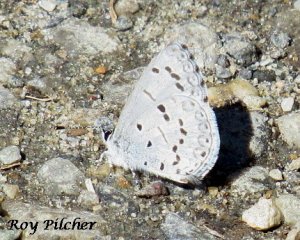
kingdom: Animalia
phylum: Arthropoda
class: Insecta
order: Lepidoptera
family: Lycaenidae
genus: Celastrina
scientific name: Celastrina lucia
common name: Northern Spring Azure
